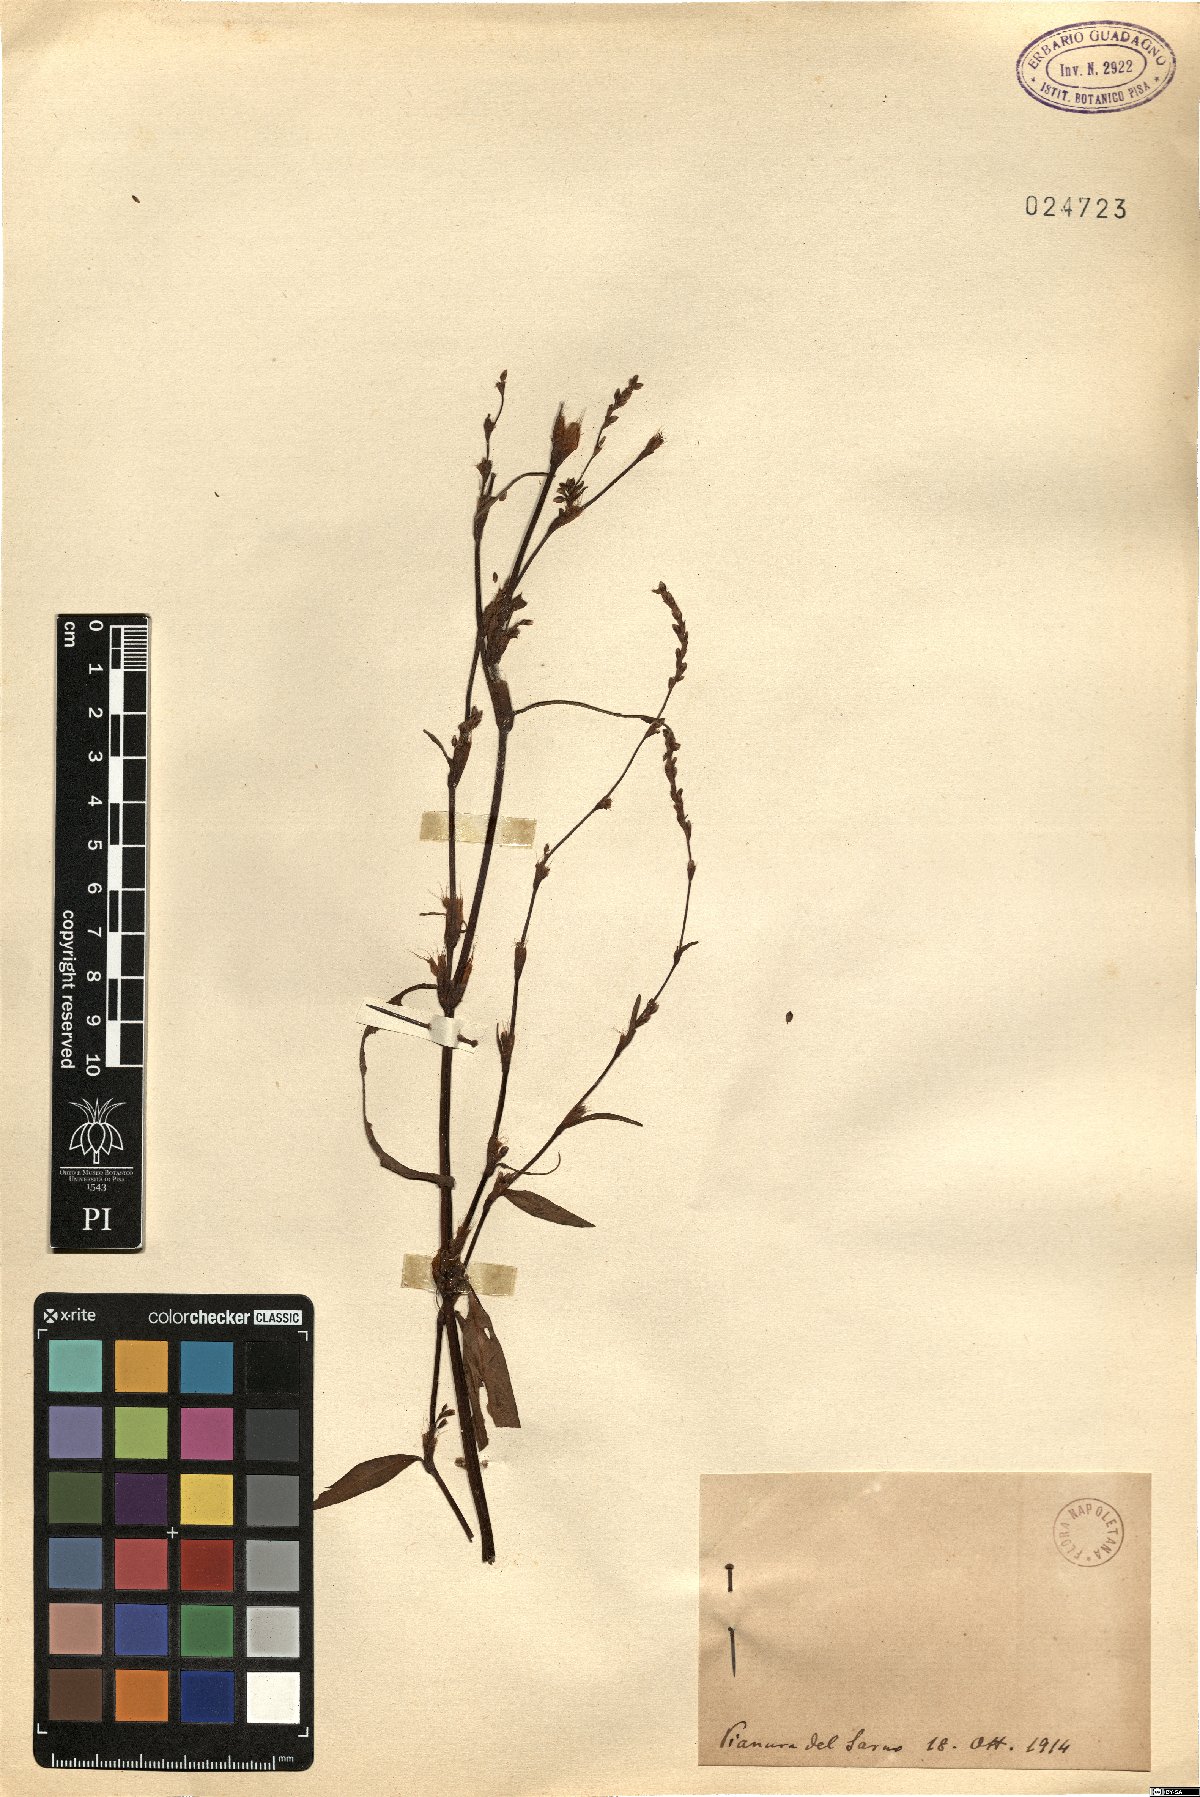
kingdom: Plantae
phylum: Tracheophyta
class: Magnoliopsida
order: Caryophyllales
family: Polygonaceae
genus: Polygonum
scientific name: Polygonum
